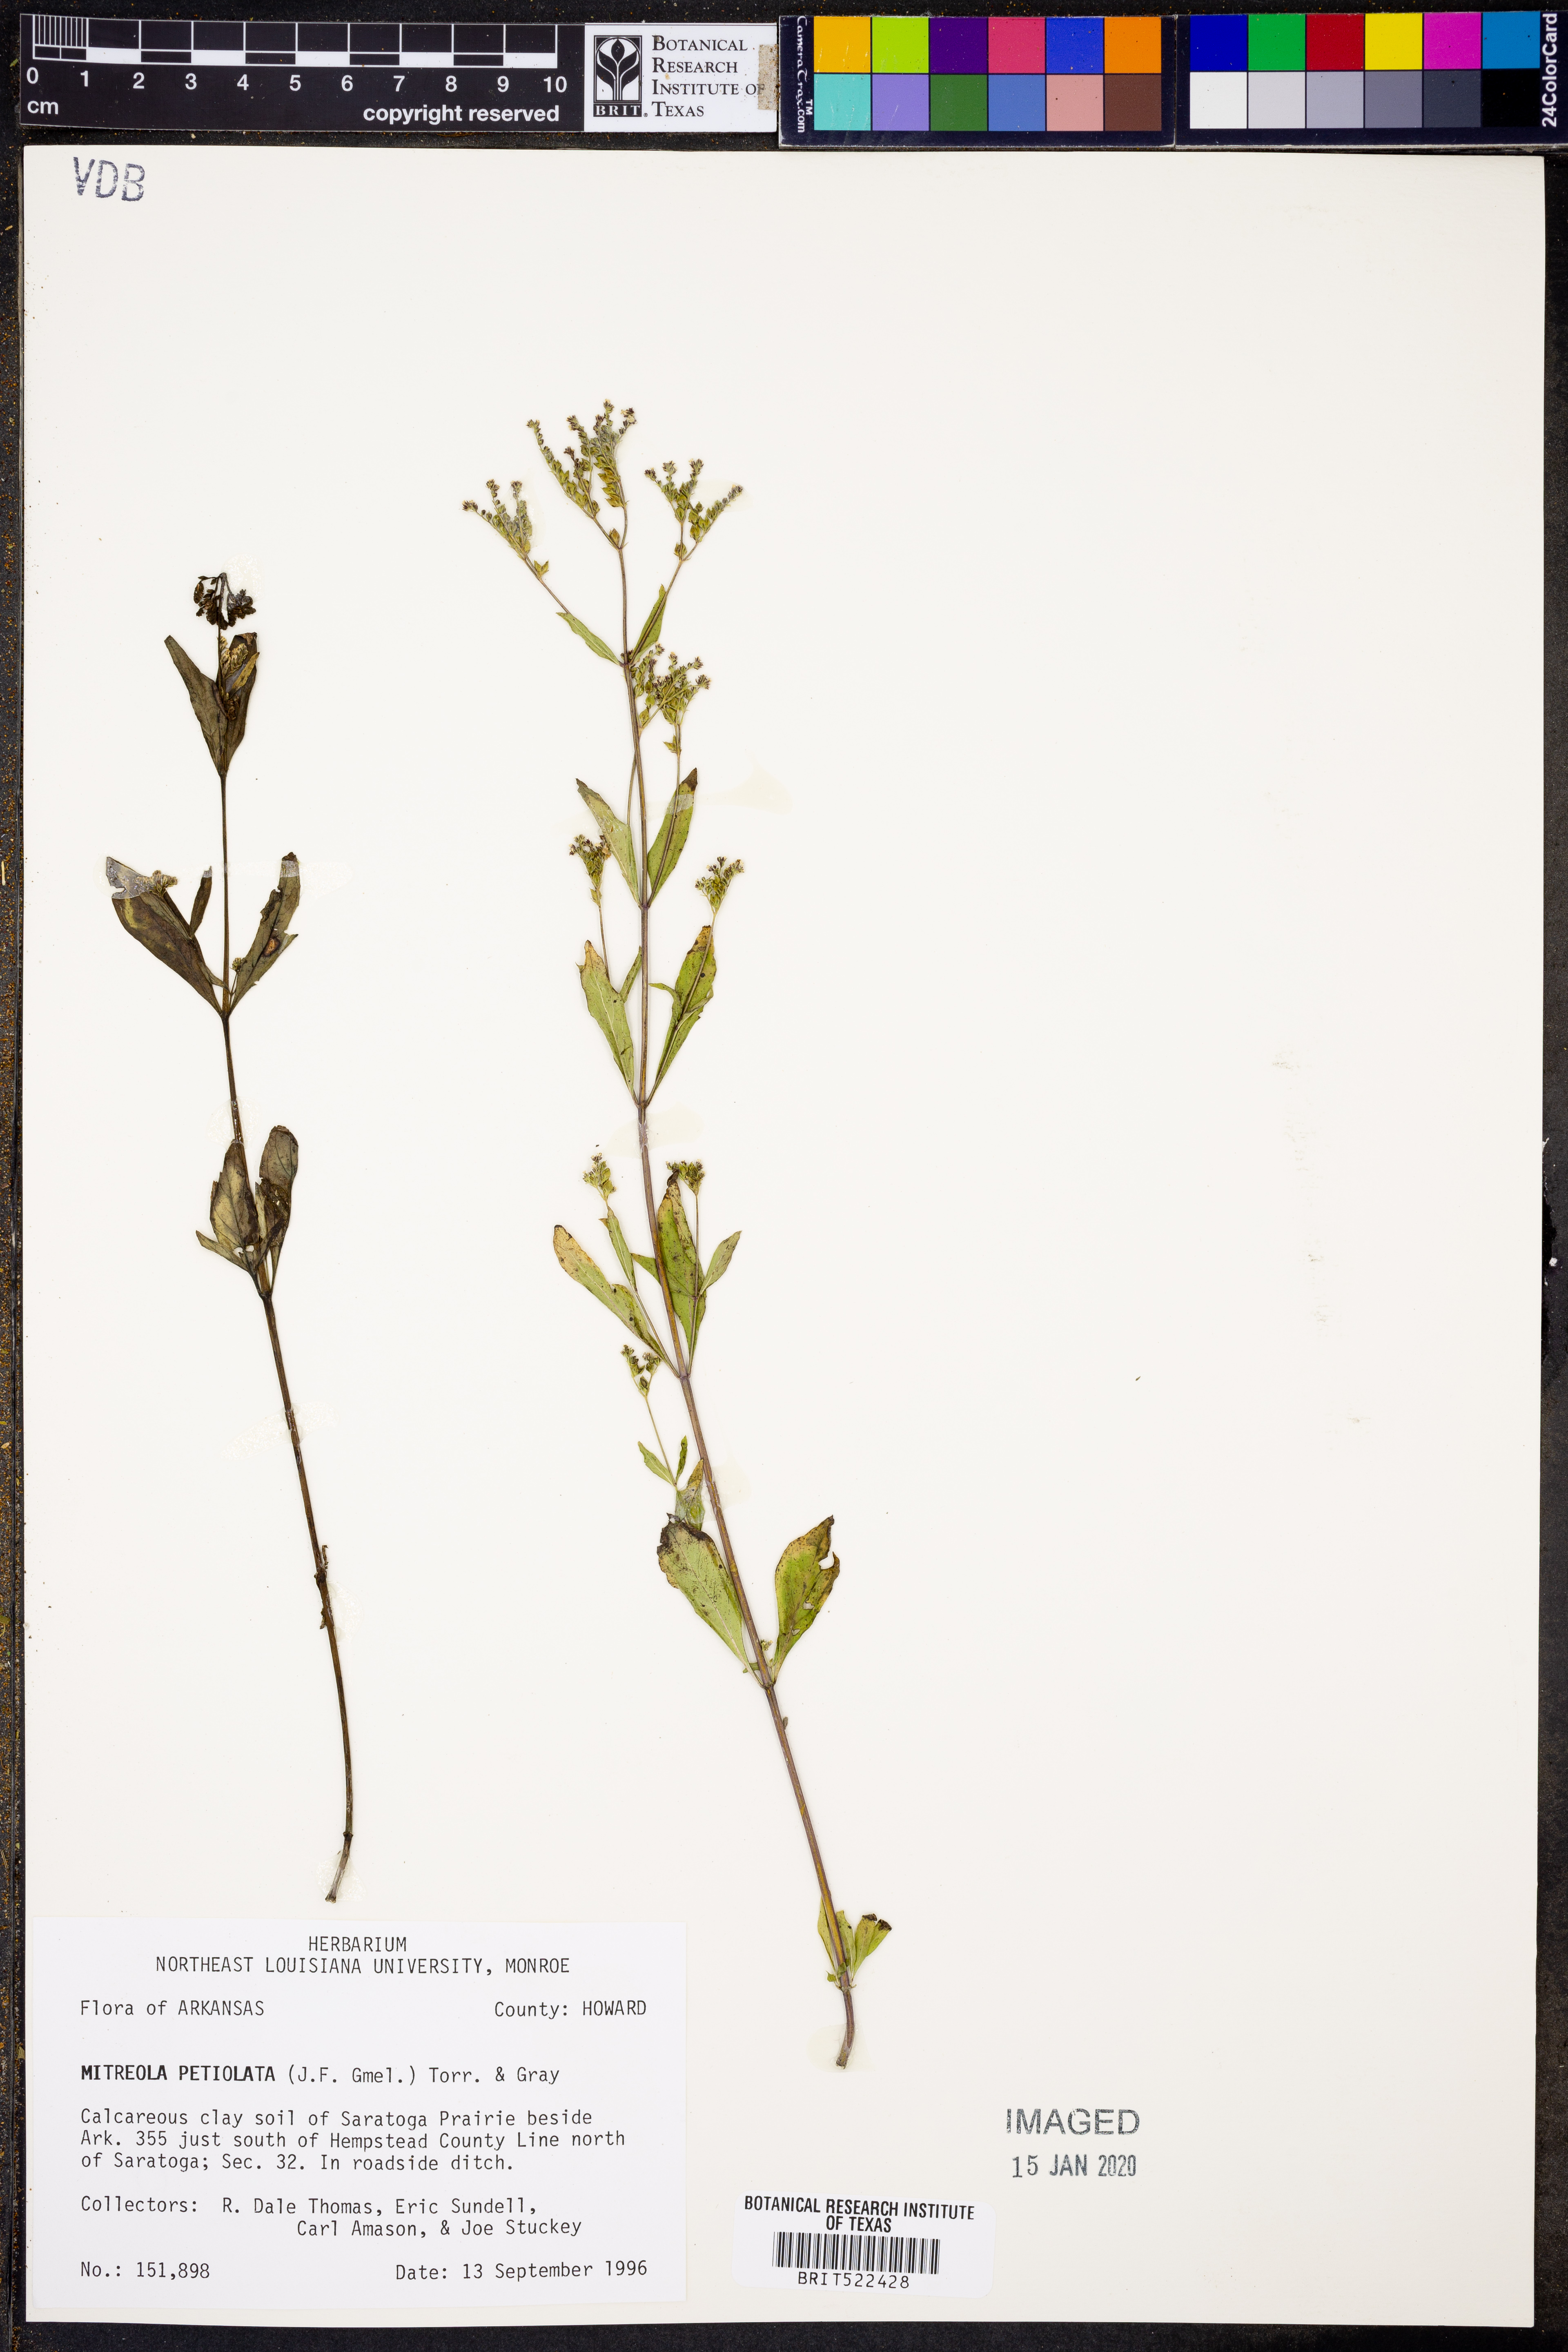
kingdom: Plantae
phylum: Tracheophyta
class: Magnoliopsida
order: Gentianales
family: Loganiaceae
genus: Mitreola
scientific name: Mitreola petiolata
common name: Lax hornpod
